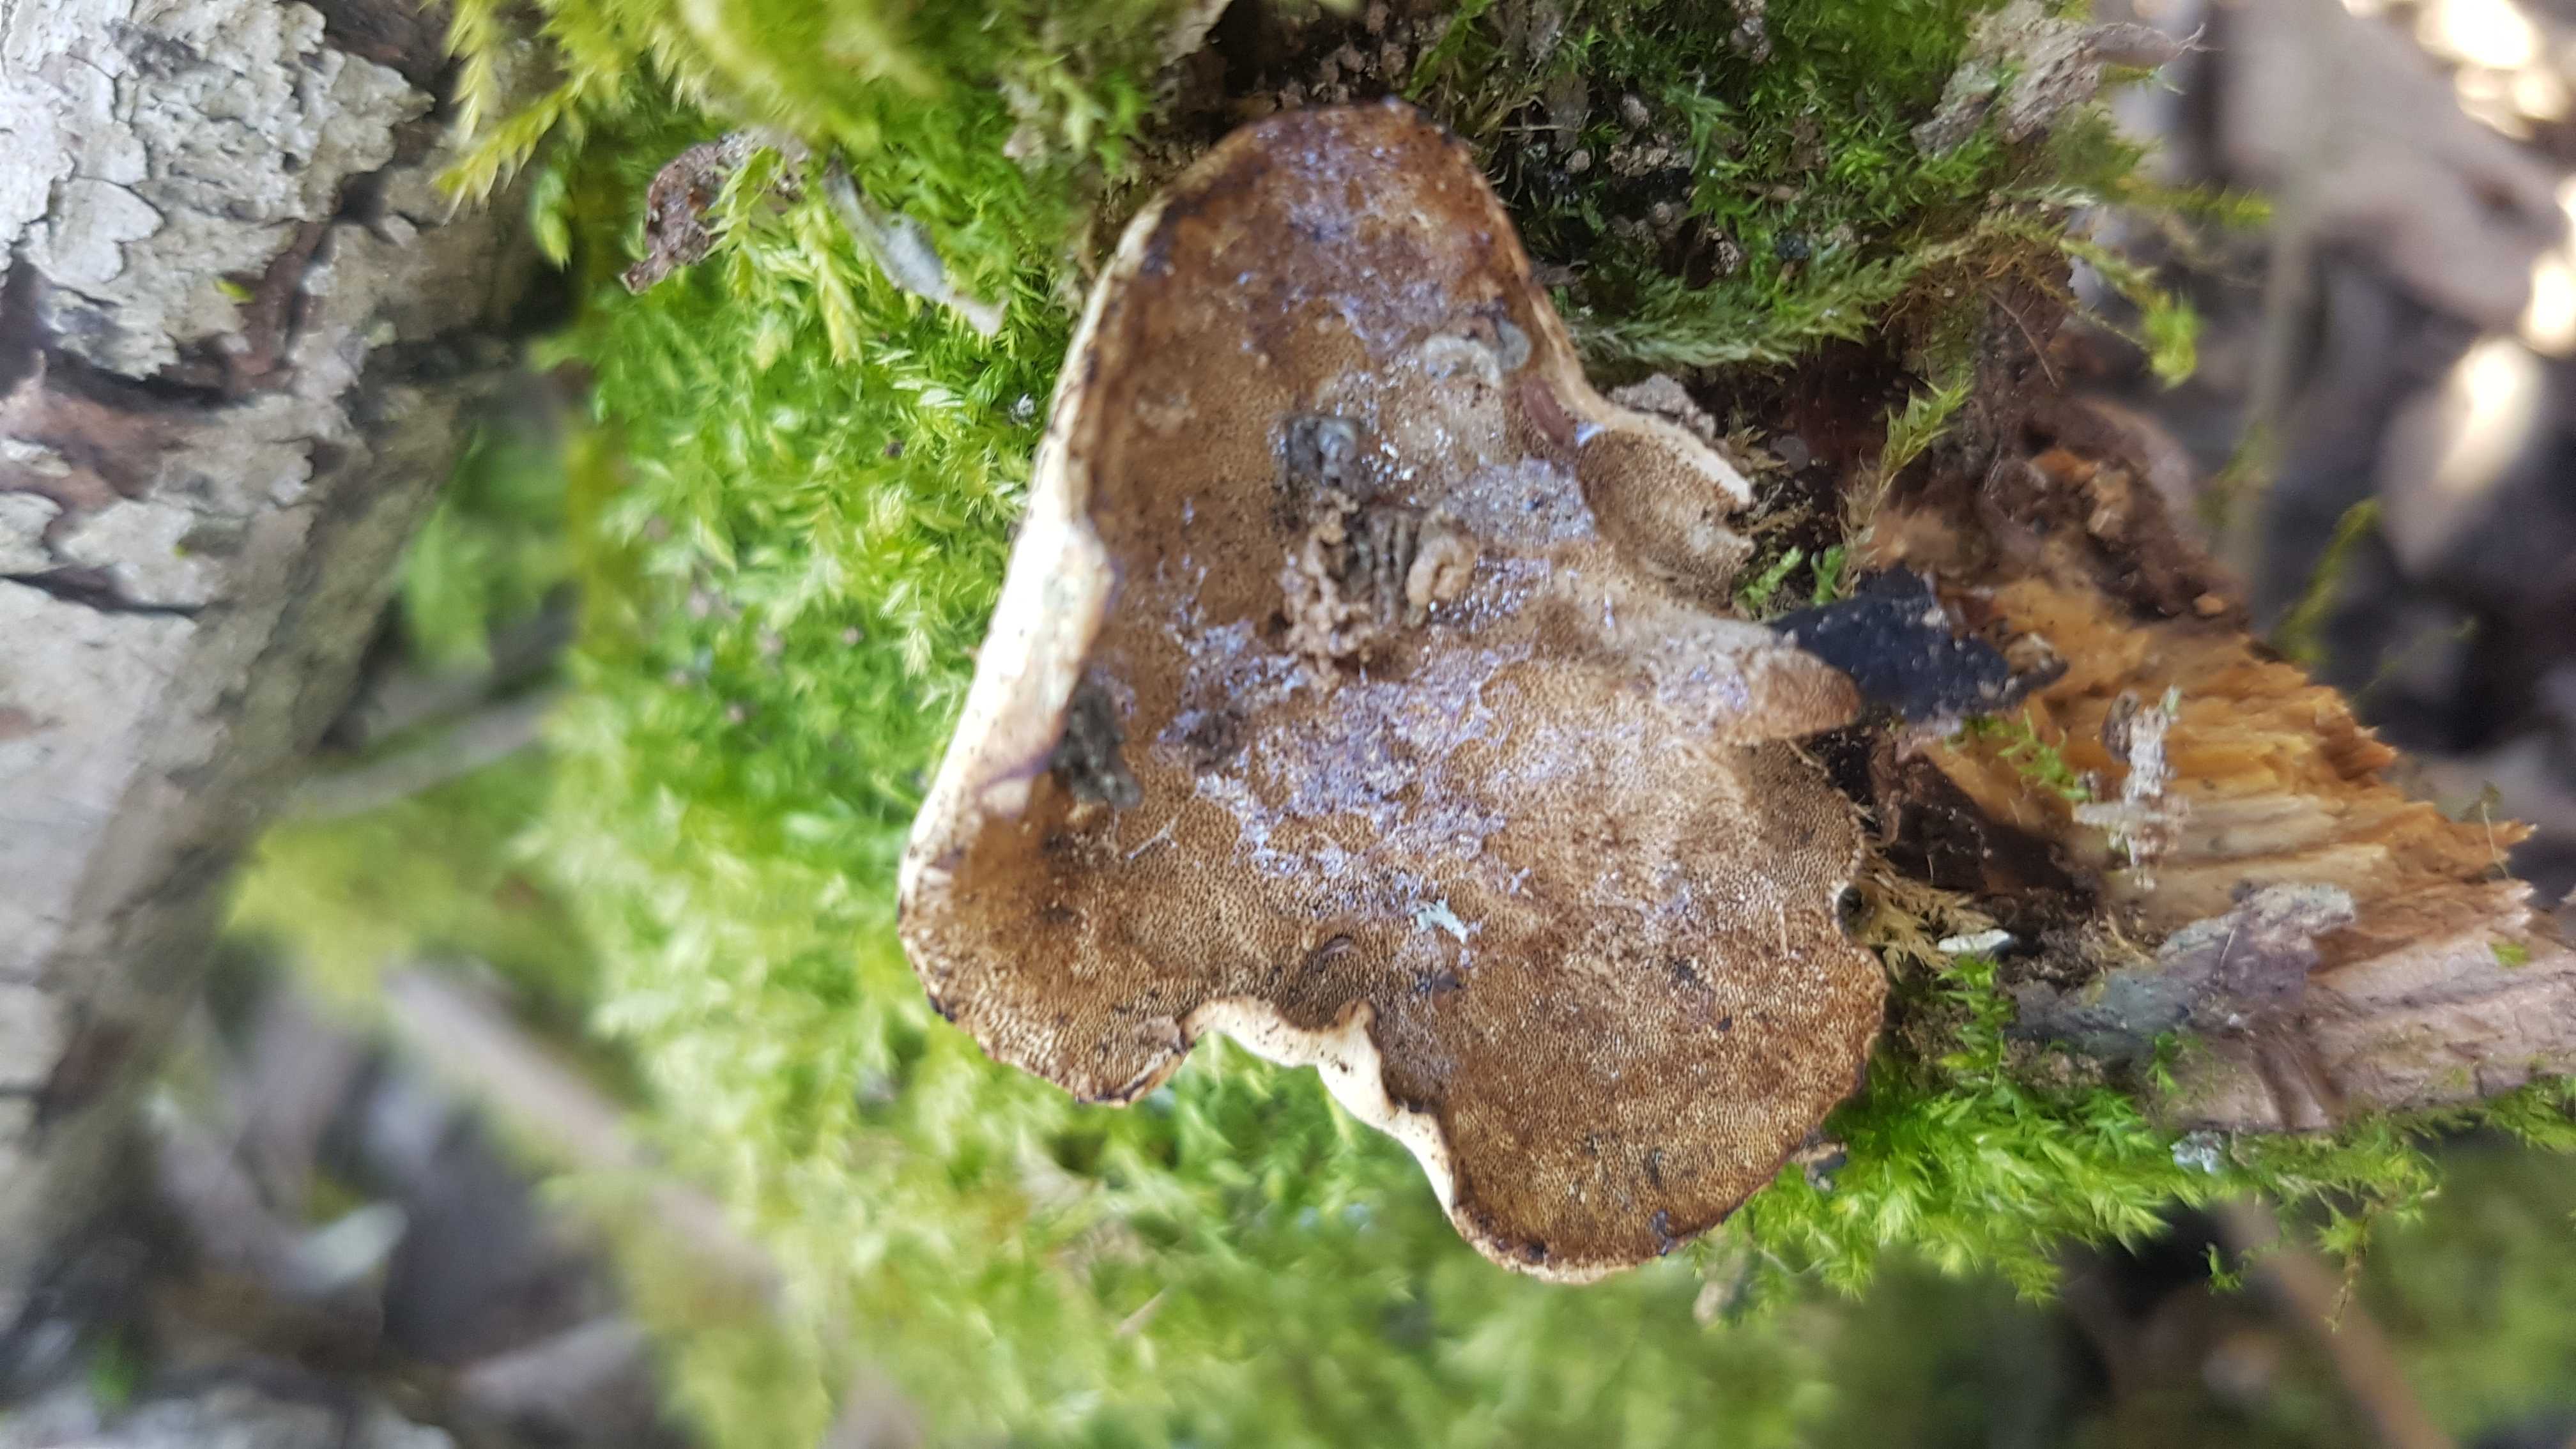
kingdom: Fungi
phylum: Basidiomycota
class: Agaricomycetes
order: Polyporales
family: Polyporaceae
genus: Cerioporus
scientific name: Cerioporus varius
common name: foranderlig stilkporesvamp
